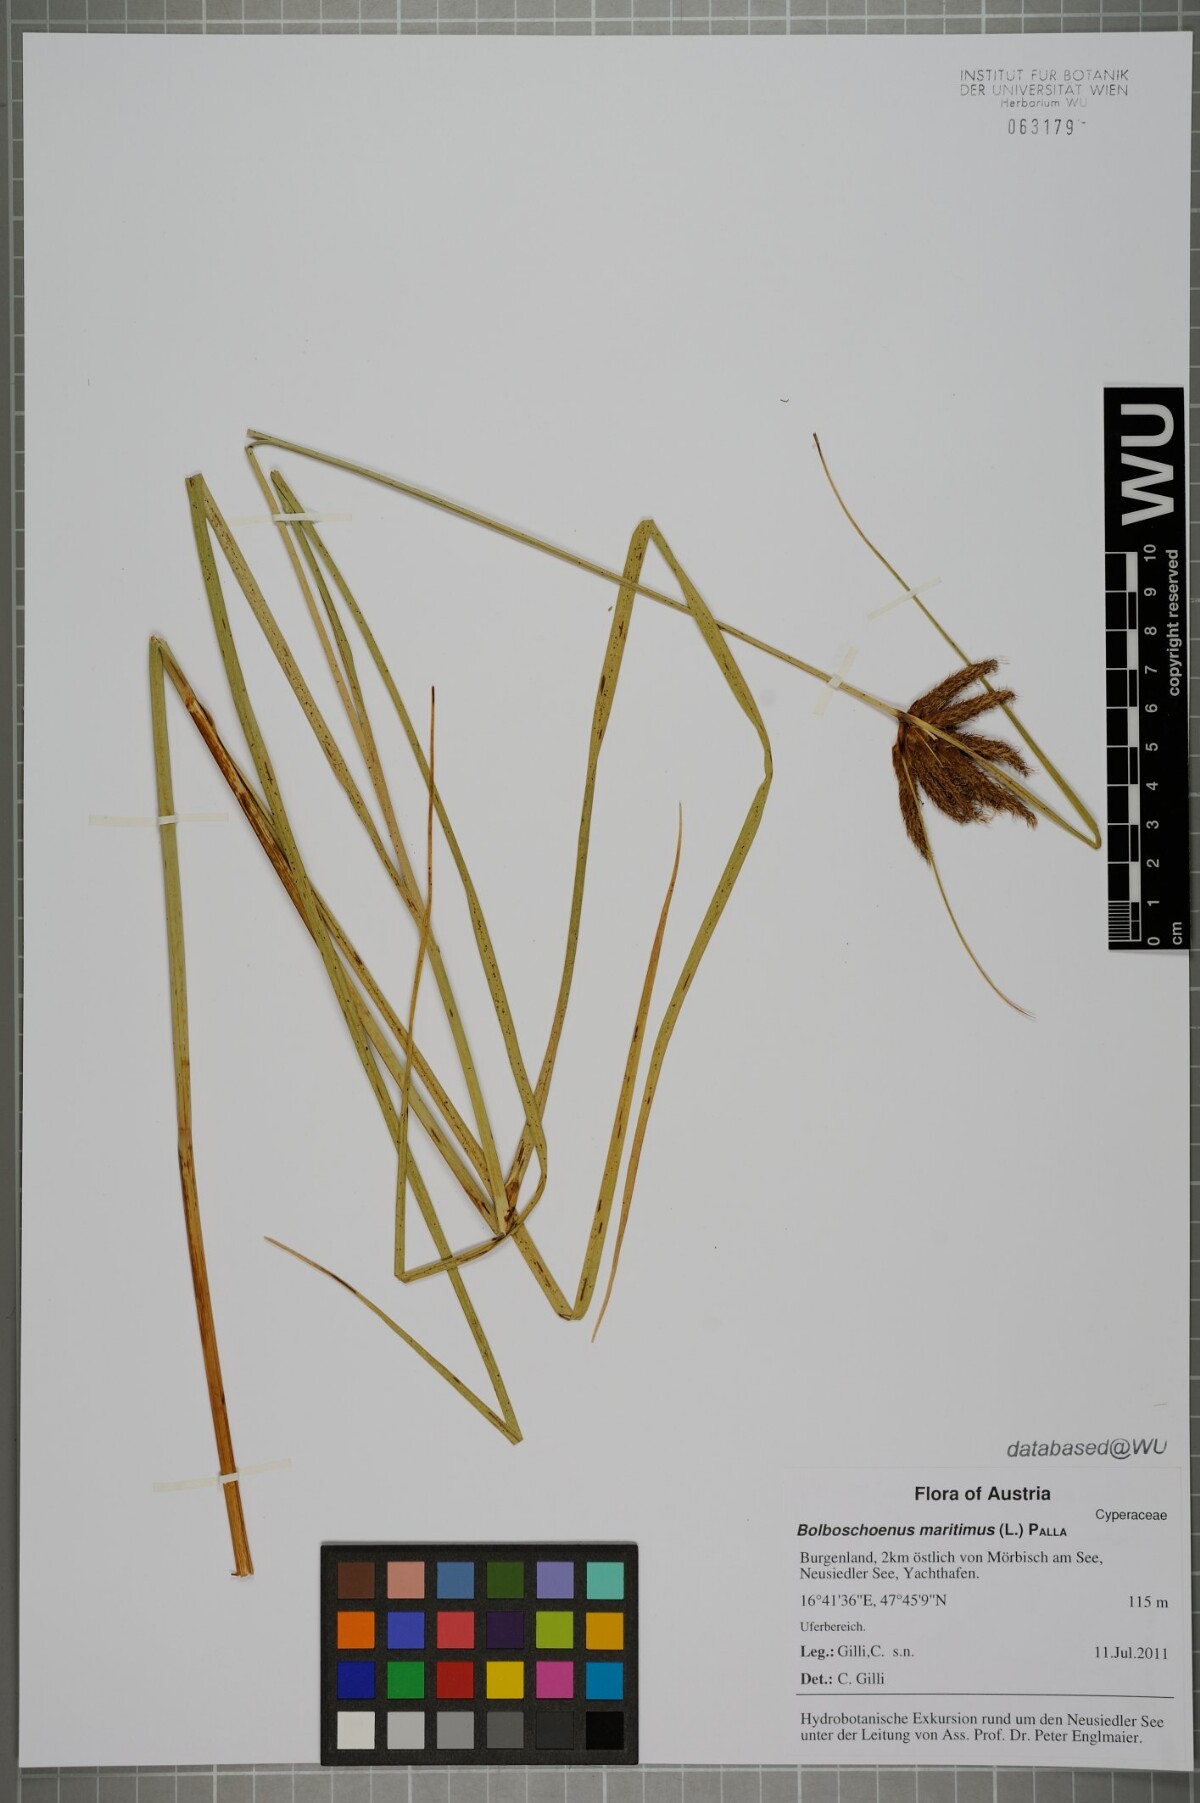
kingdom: Plantae
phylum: Tracheophyta
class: Liliopsida
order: Poales
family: Cyperaceae
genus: Bolboschoenus
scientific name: Bolboschoenus maritimus
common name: Sea club-rush
